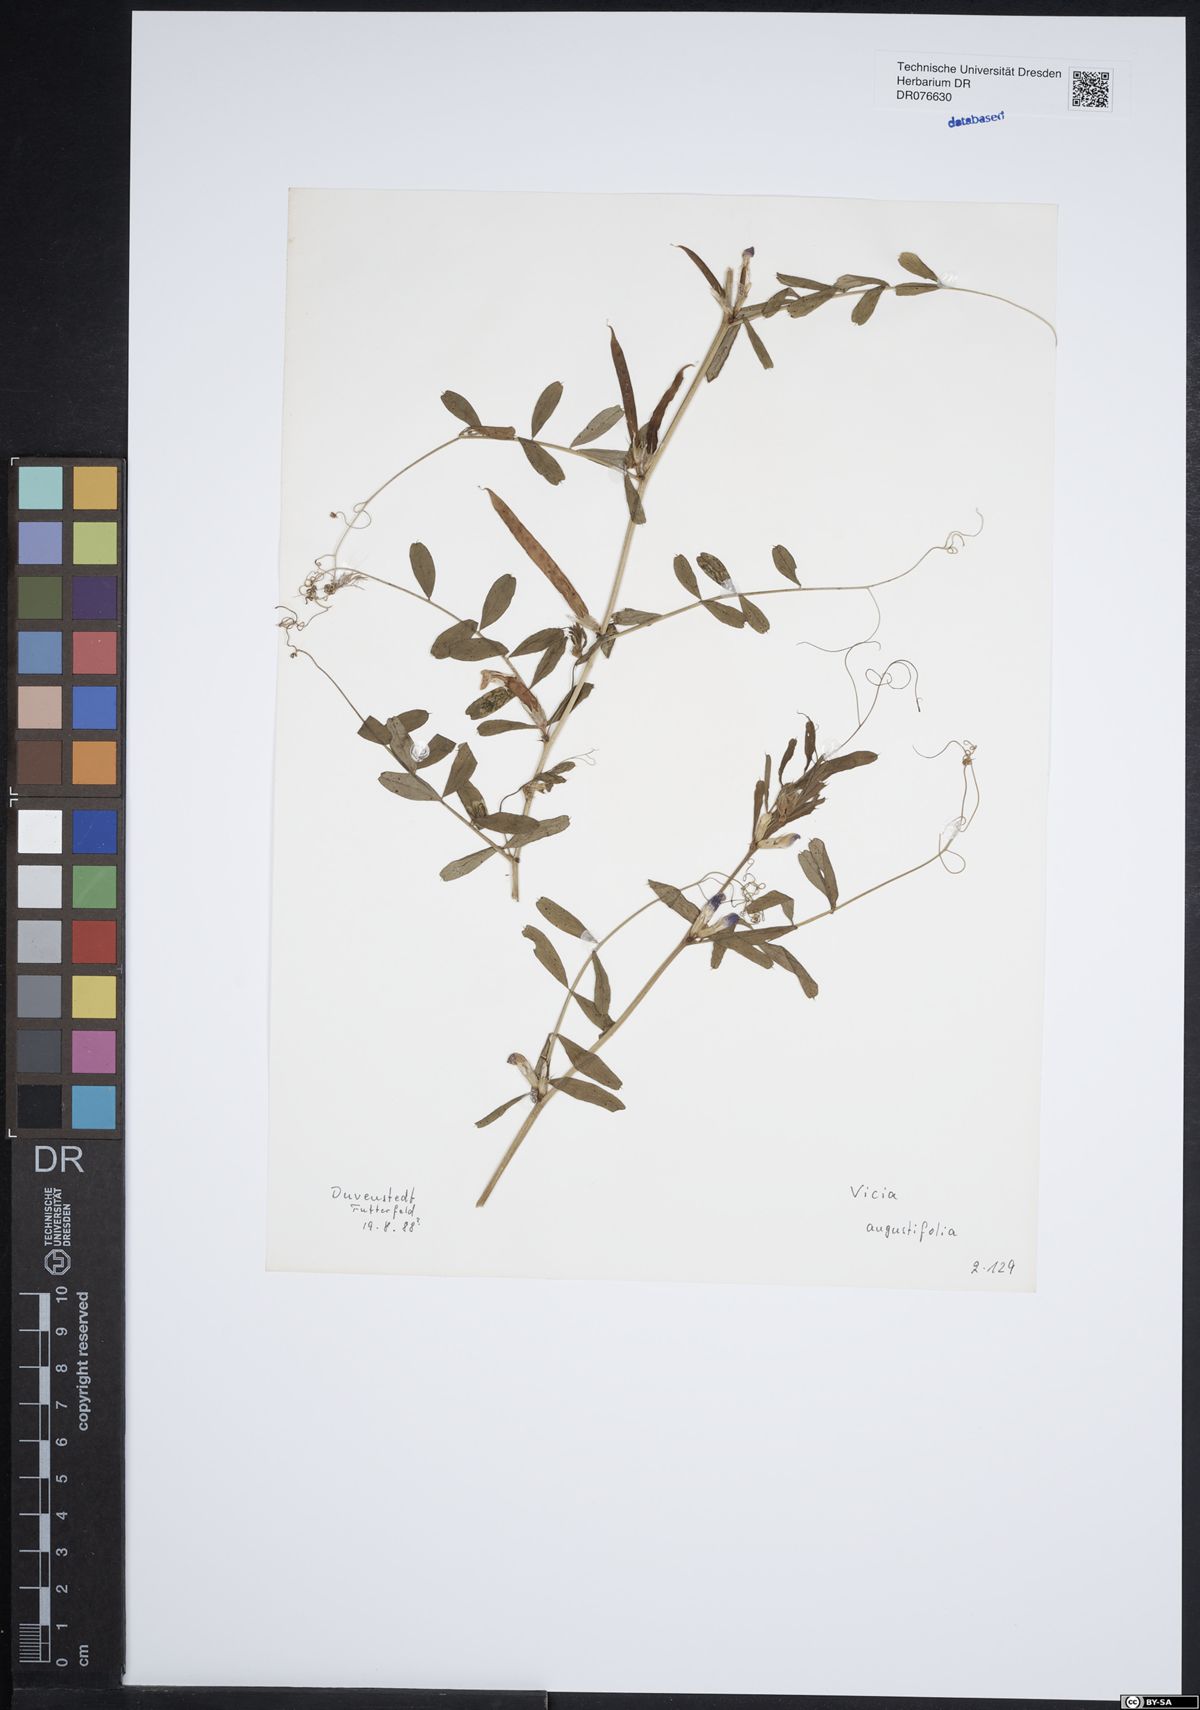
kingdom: Plantae
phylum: Tracheophyta
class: Magnoliopsida
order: Fabales
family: Fabaceae
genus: Vicia
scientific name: Vicia sativa
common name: Garden vetch
